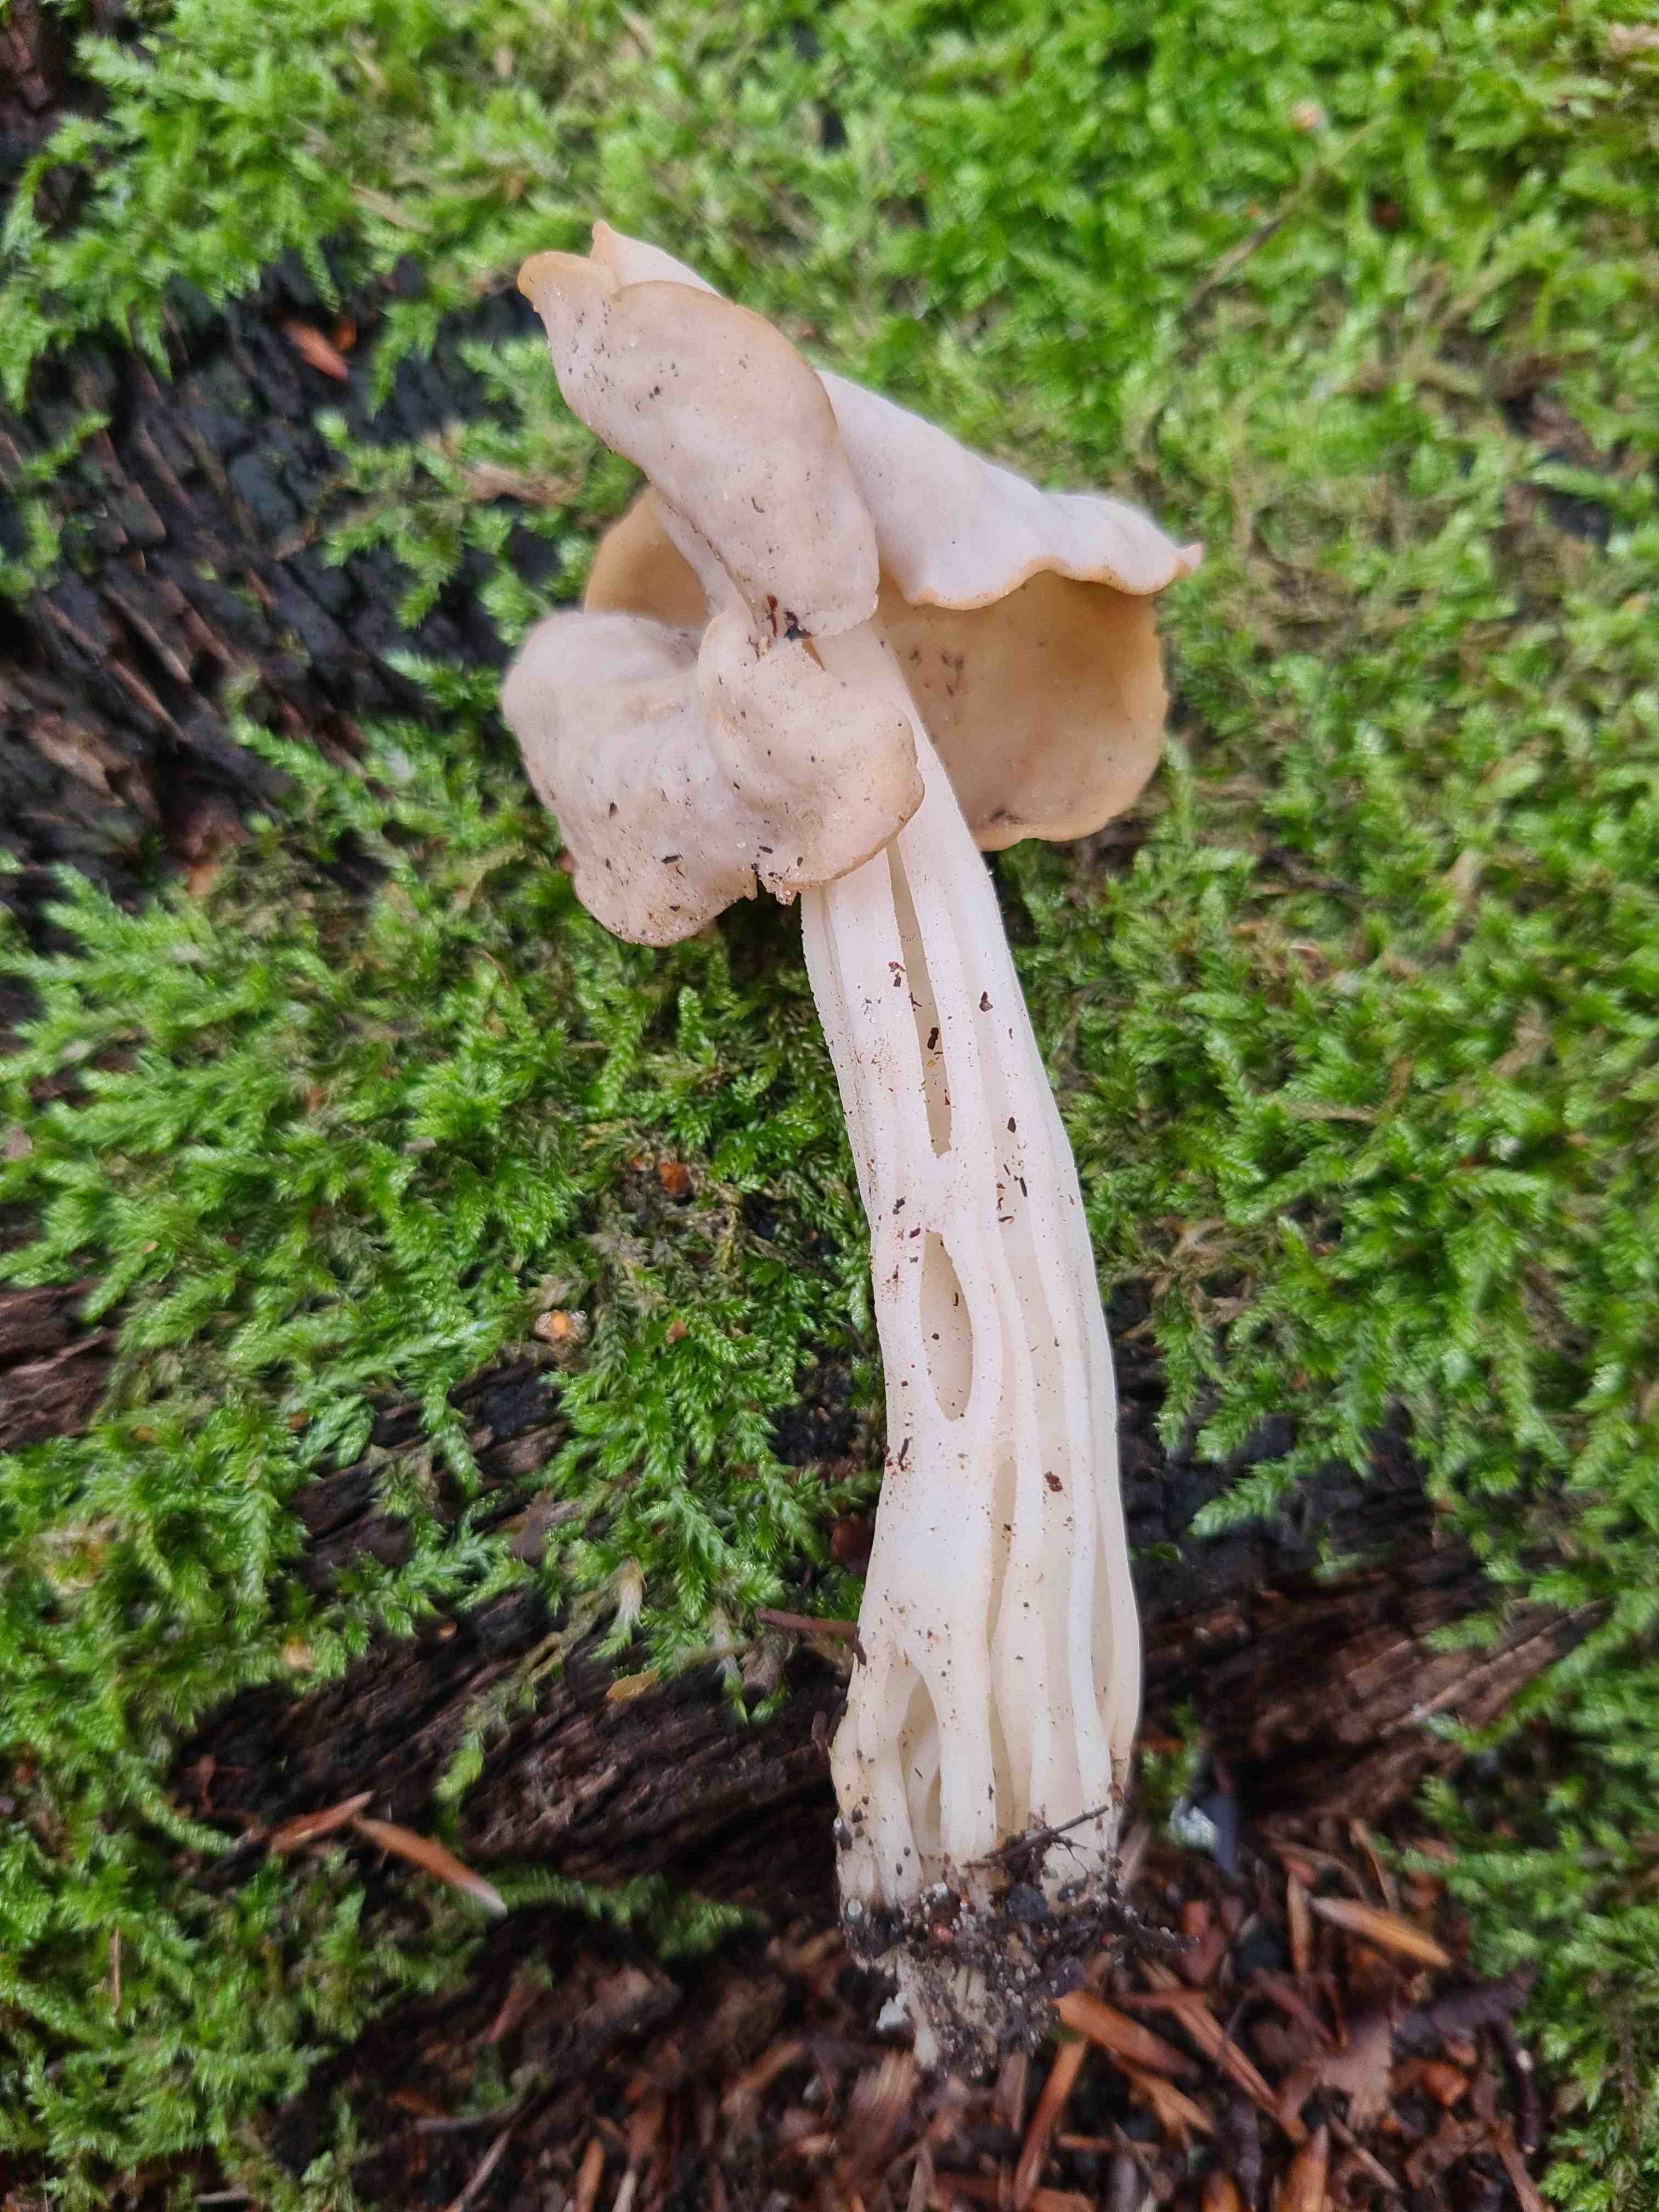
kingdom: Fungi
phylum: Ascomycota
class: Pezizomycetes
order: Pezizales
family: Helvellaceae
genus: Helvella
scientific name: Helvella crispa
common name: kruset foldhat
